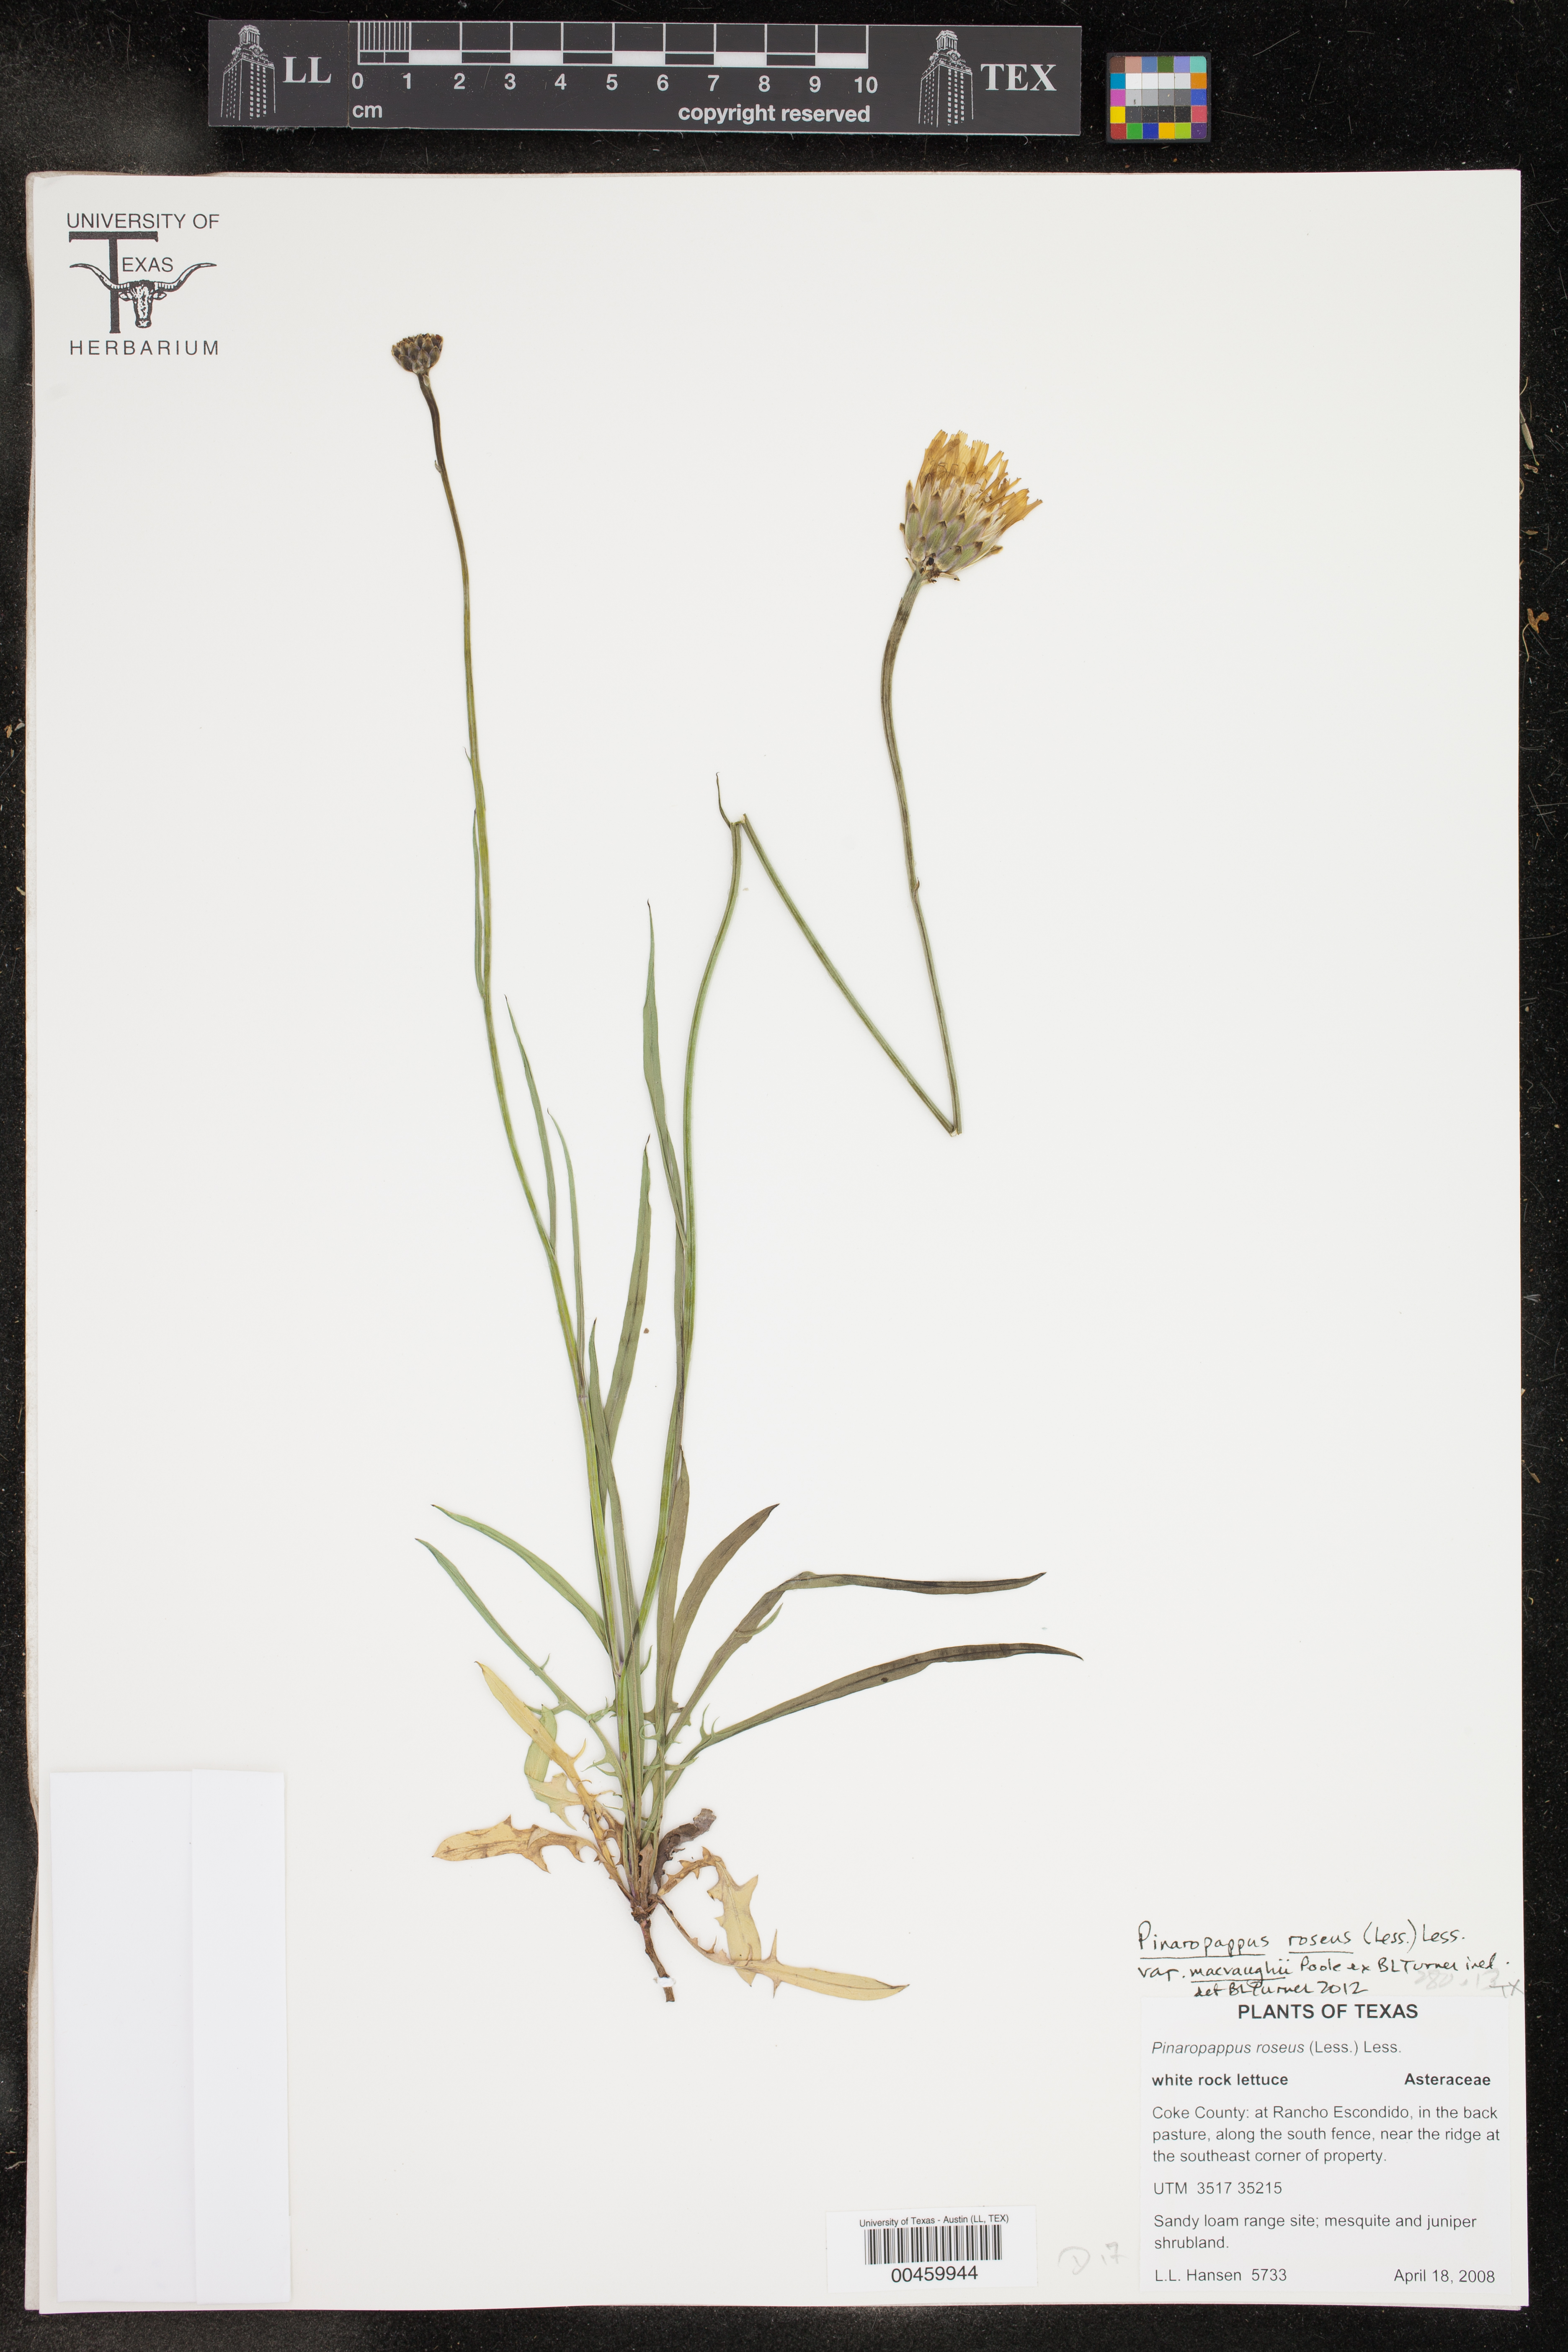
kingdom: Plantae
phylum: Tracheophyta
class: Magnoliopsida
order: Asterales
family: Asteraceae
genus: Pinaropappus
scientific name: Pinaropappus roseus
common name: Rock-lettuce
